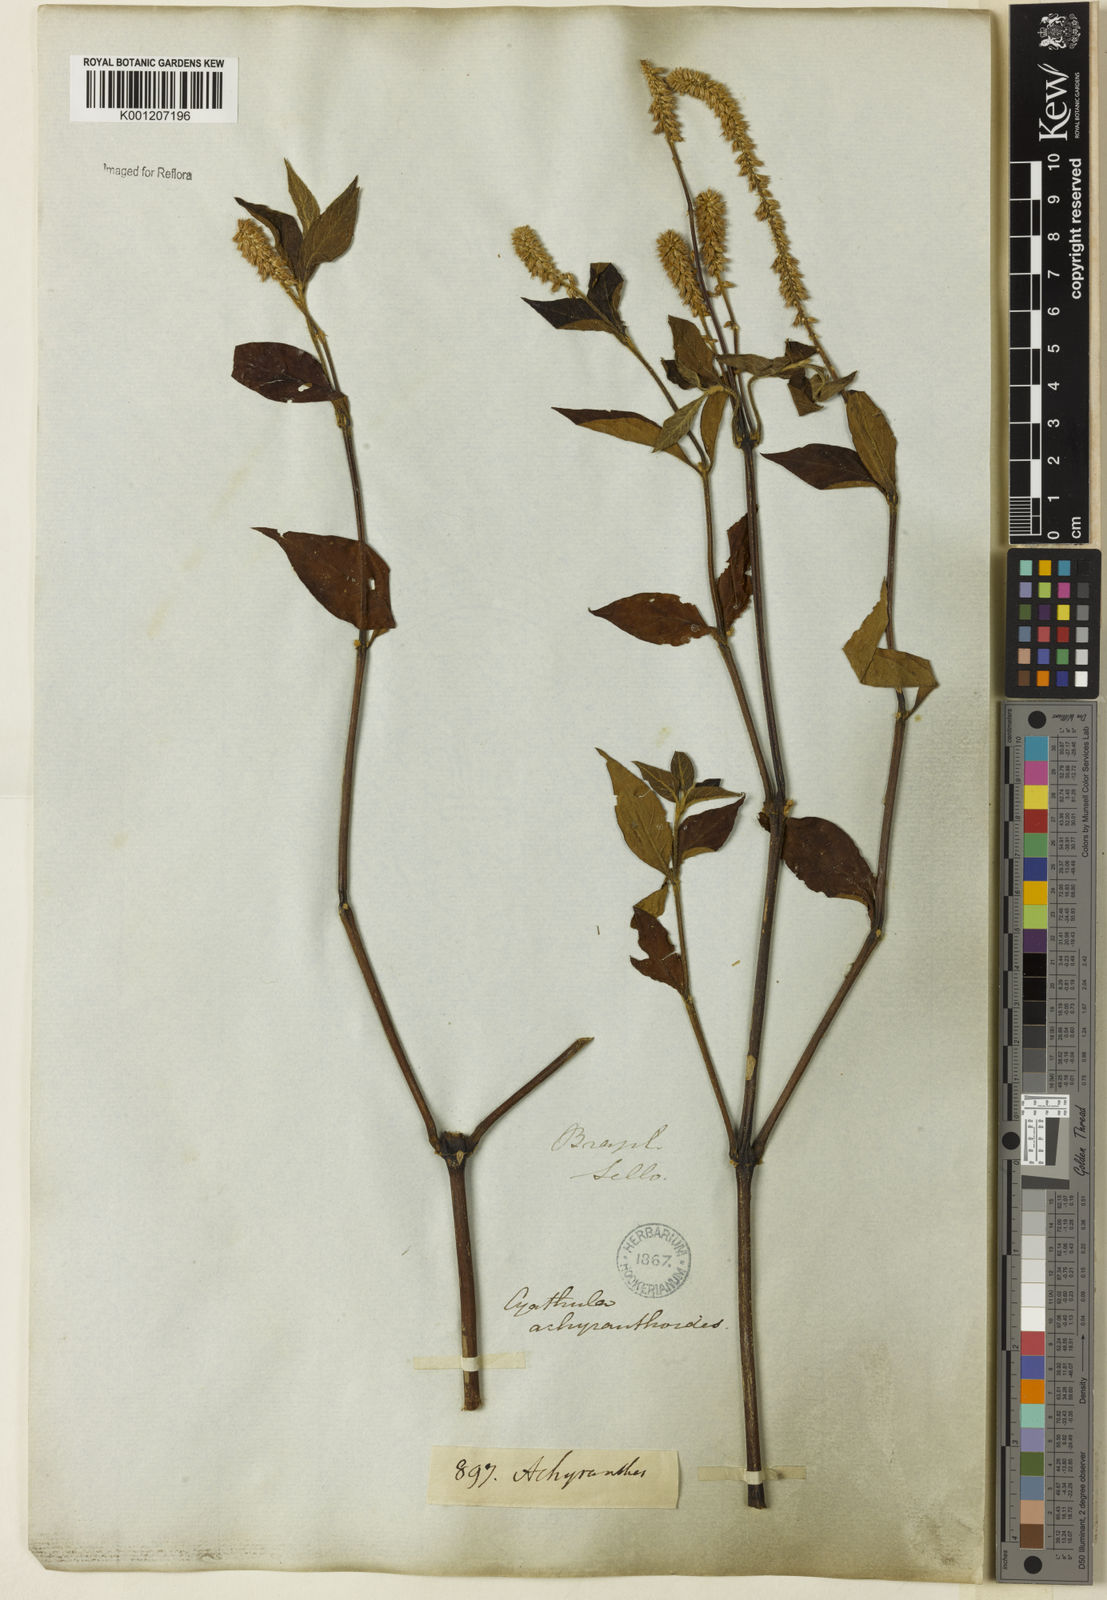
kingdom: Plantae
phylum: Tracheophyta
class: Magnoliopsida
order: Caryophyllales
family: Amaranthaceae
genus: Cyathula
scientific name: Cyathula achyranthoides
